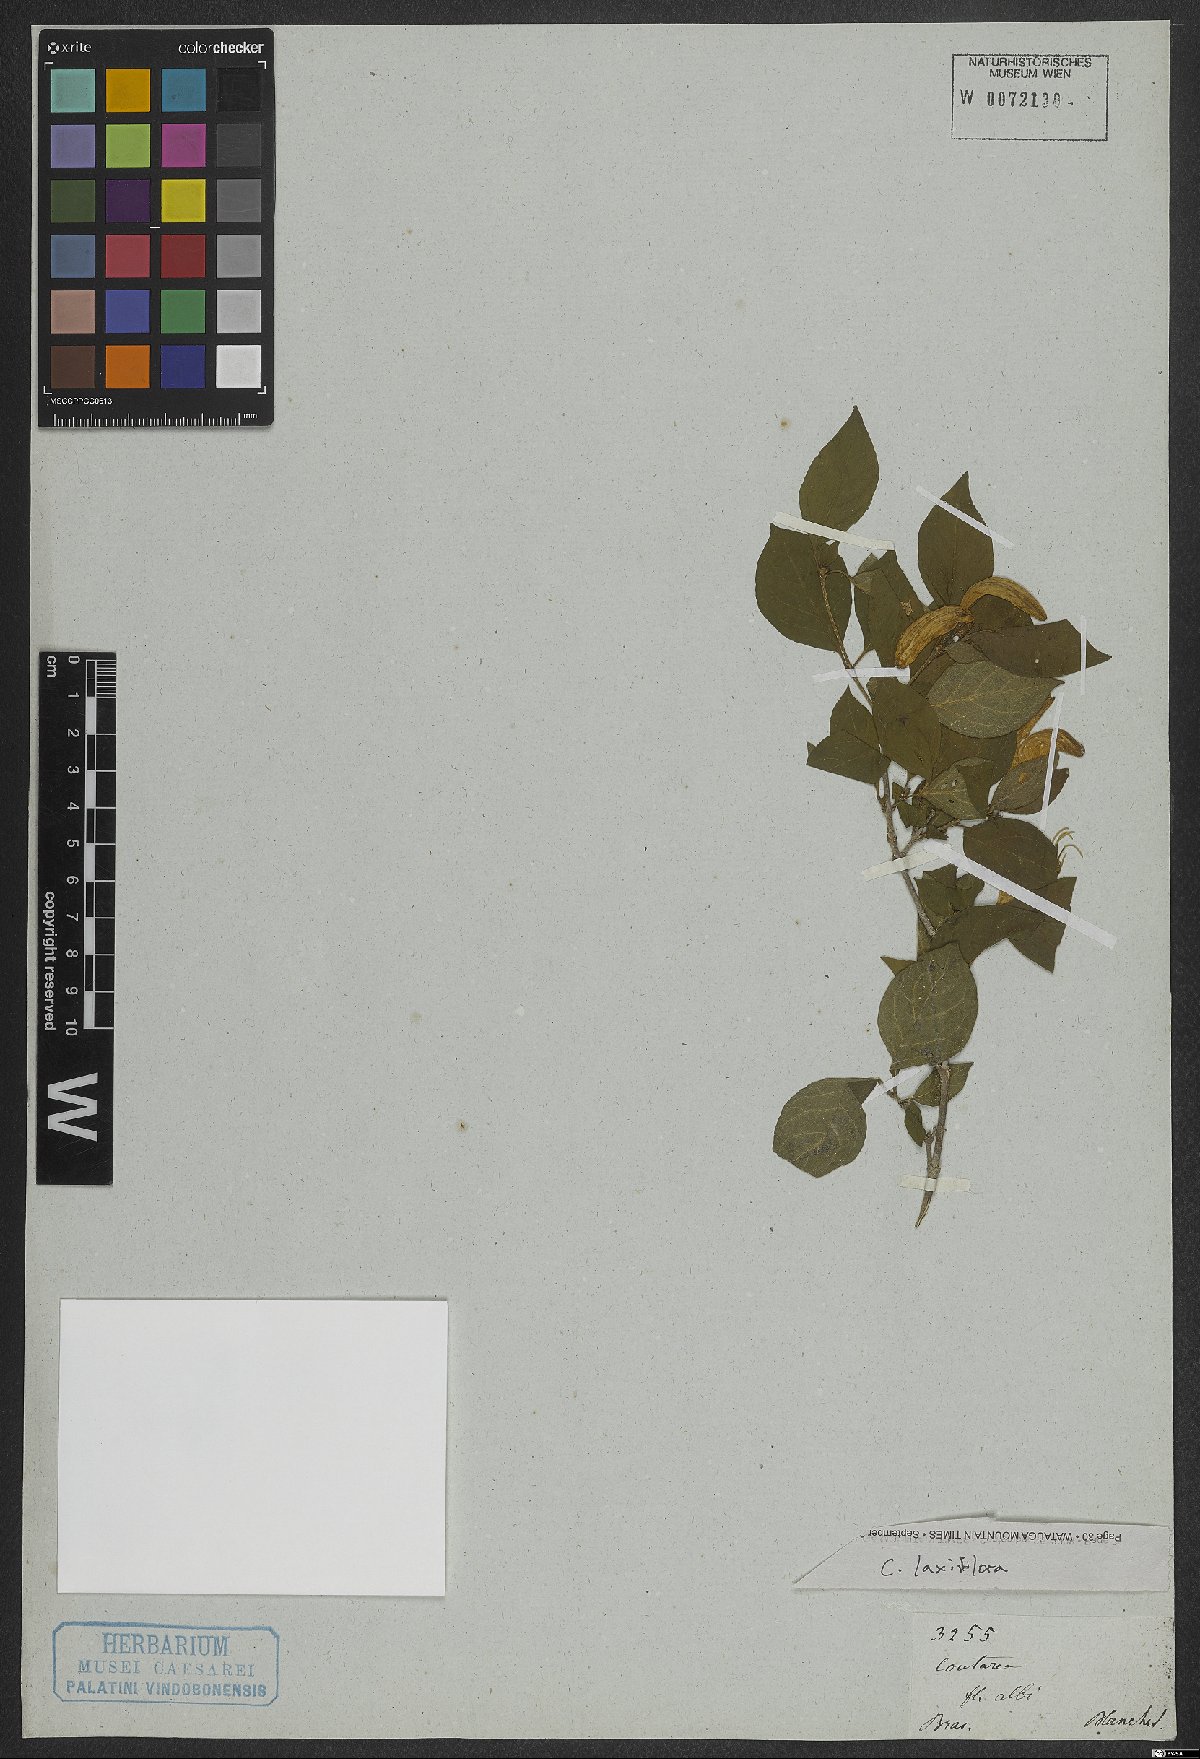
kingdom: Plantae
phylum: Tracheophyta
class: Magnoliopsida
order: Gentianales
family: Rubiaceae
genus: Coutarea
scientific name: Coutarea
